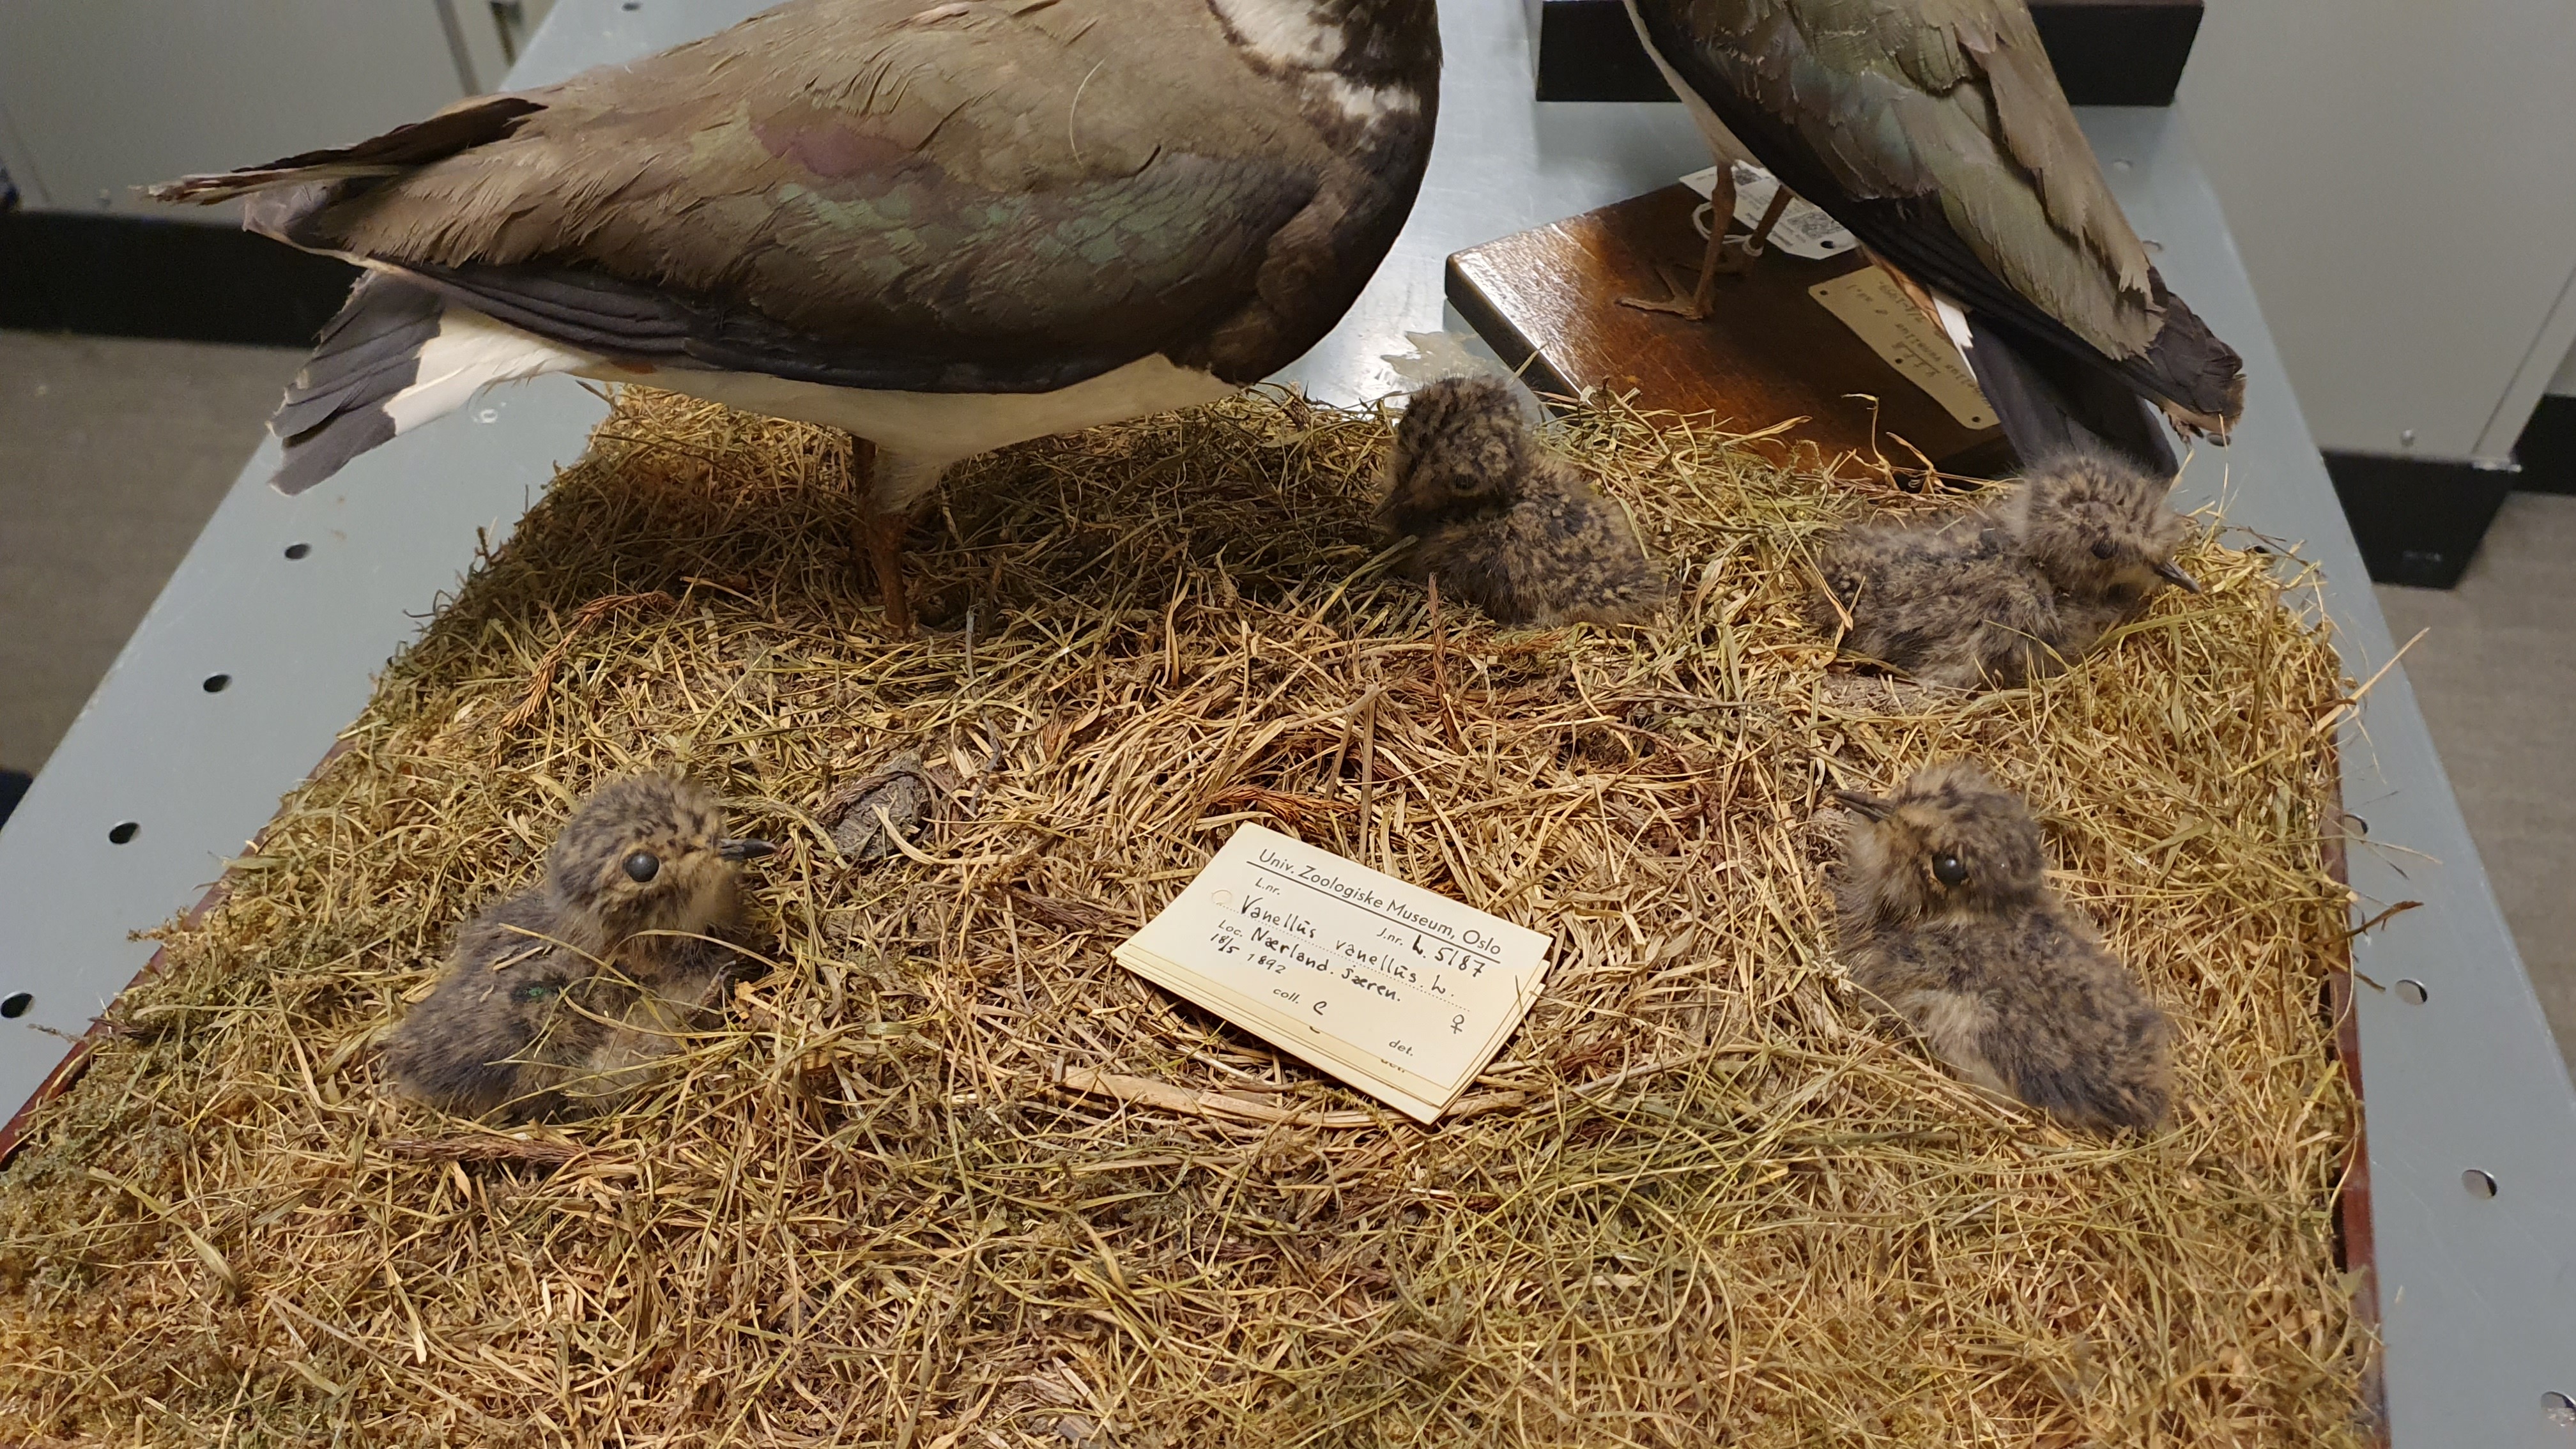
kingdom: Animalia
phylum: Chordata
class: Aves
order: Charadriiformes
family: Charadriidae
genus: Vanellus
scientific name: Vanellus vanellus
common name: Northern lapwing
